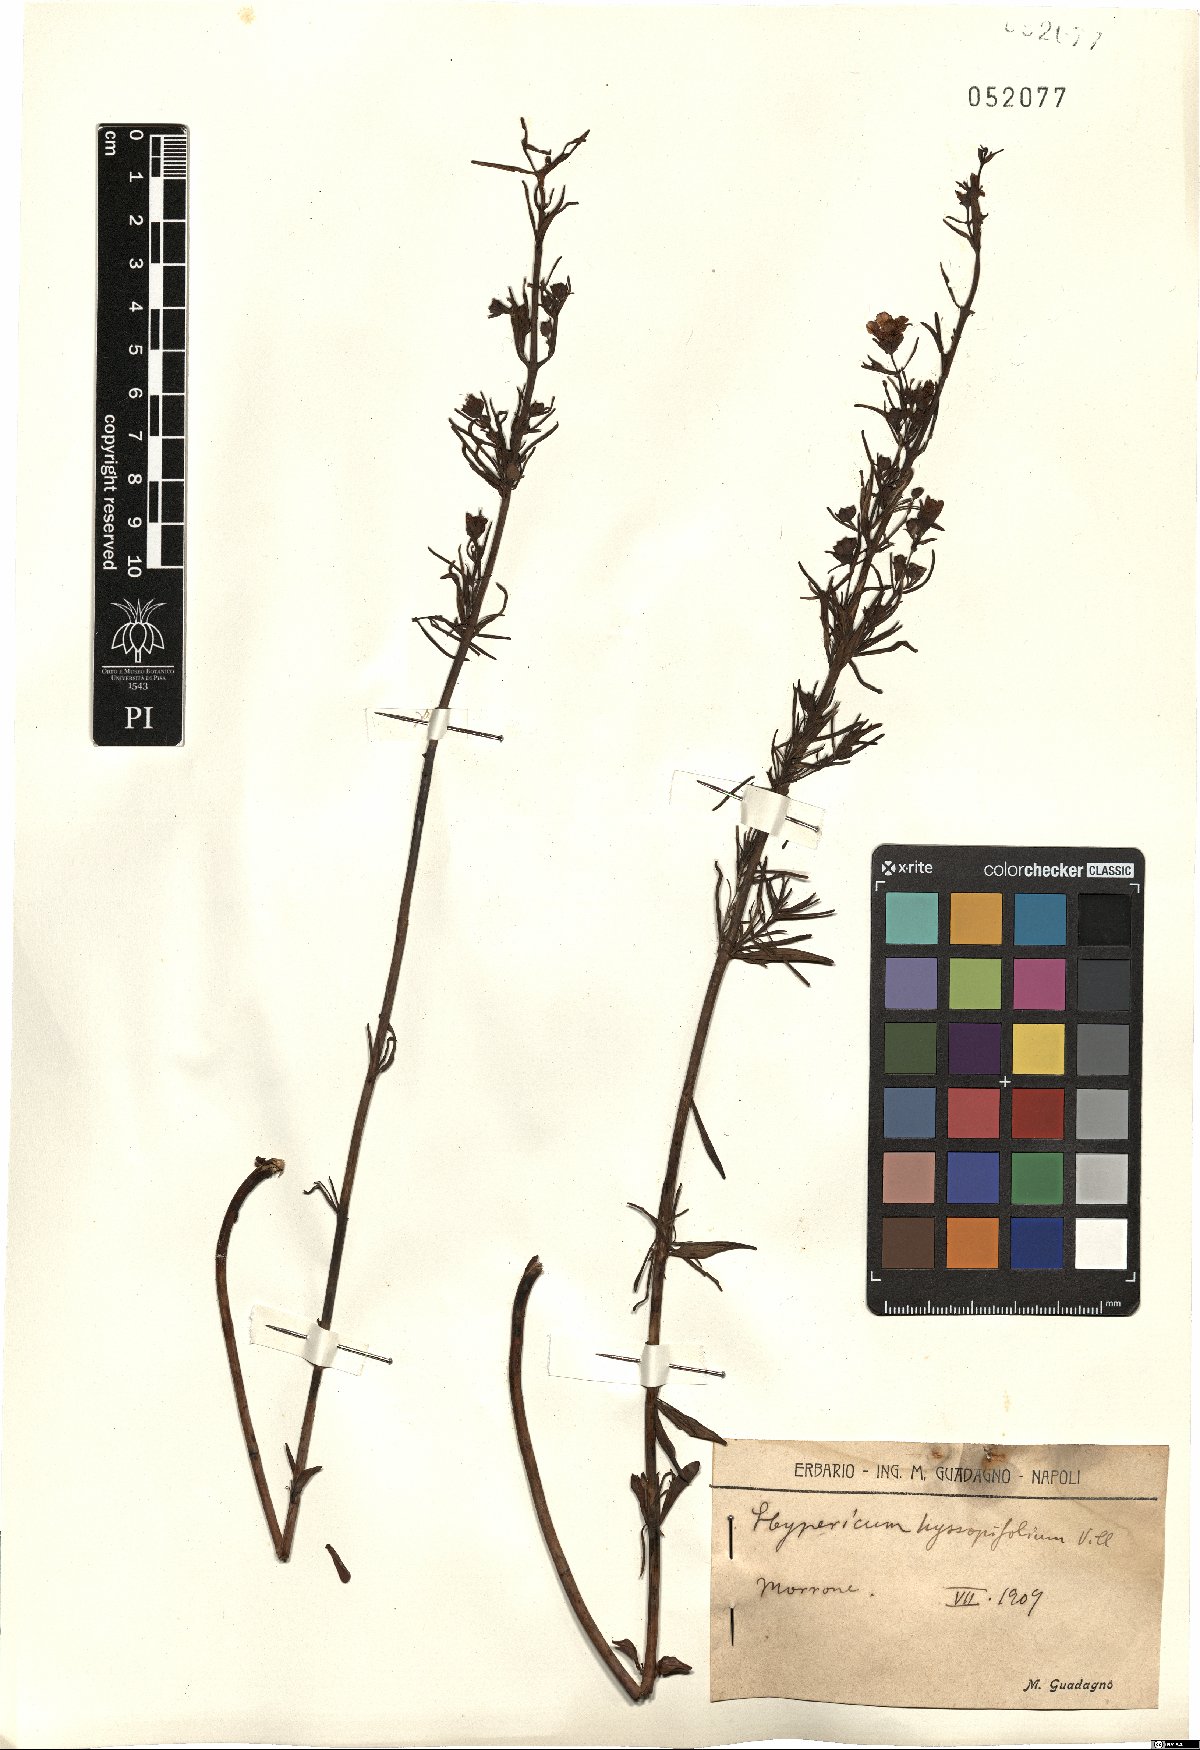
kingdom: Plantae
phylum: Tracheophyta
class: Magnoliopsida
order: Malpighiales
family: Hypericaceae
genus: Hypericum
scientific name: Hypericum hyssopifolium
